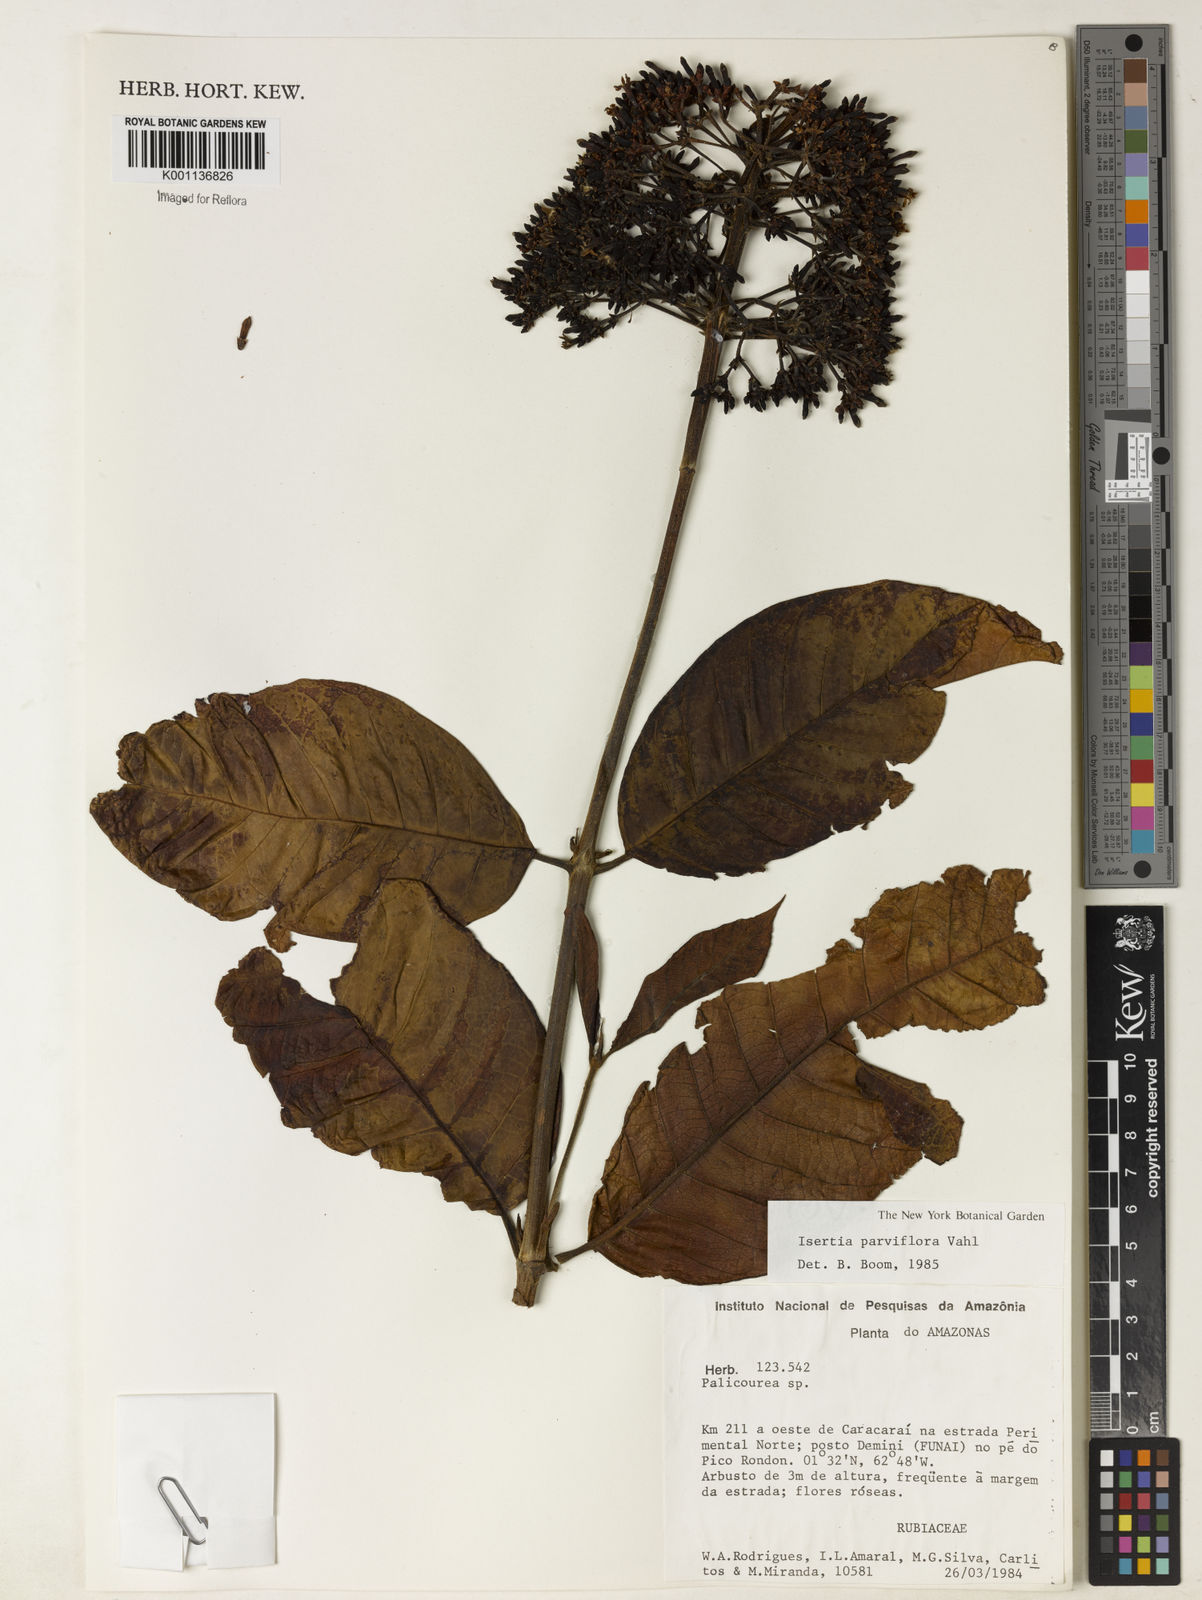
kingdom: Plantae
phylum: Tracheophyta
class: Magnoliopsida
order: Gentianales
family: Rubiaceae
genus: Isertia
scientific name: Isertia parviflora
